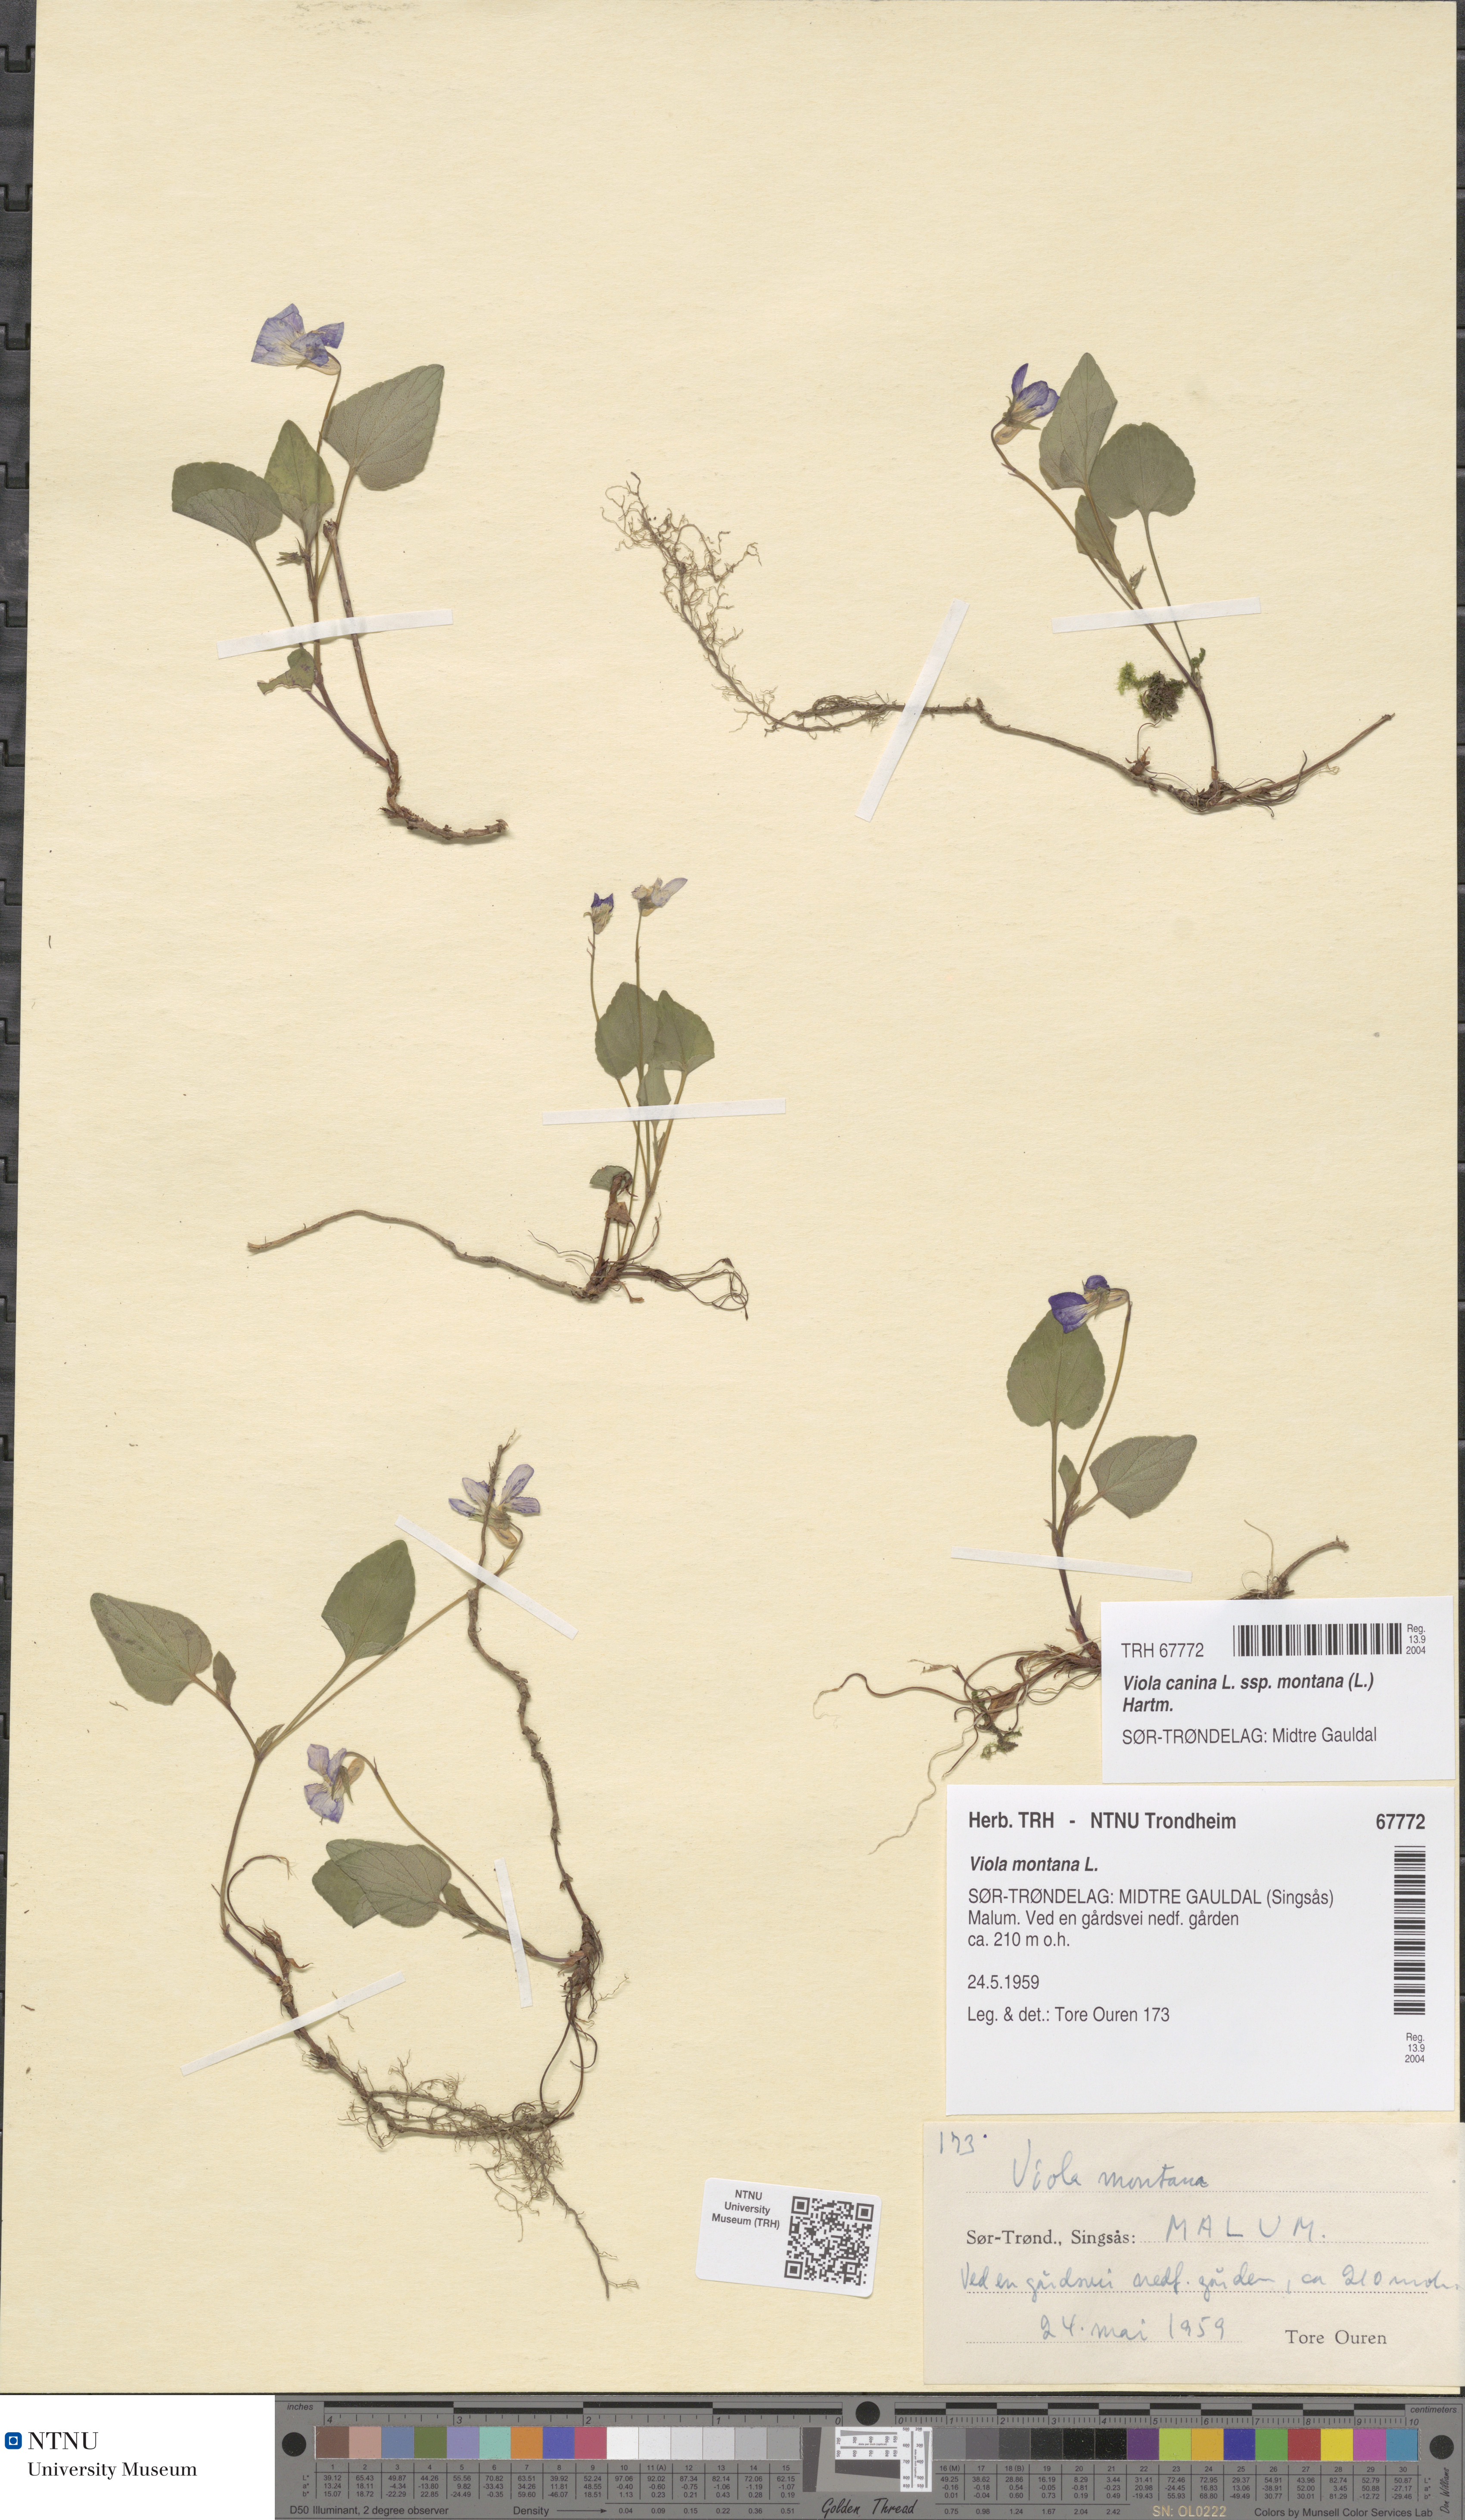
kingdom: Plantae
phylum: Tracheophyta
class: Magnoliopsida
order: Malpighiales
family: Violaceae
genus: Viola
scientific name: Viola ruppii
